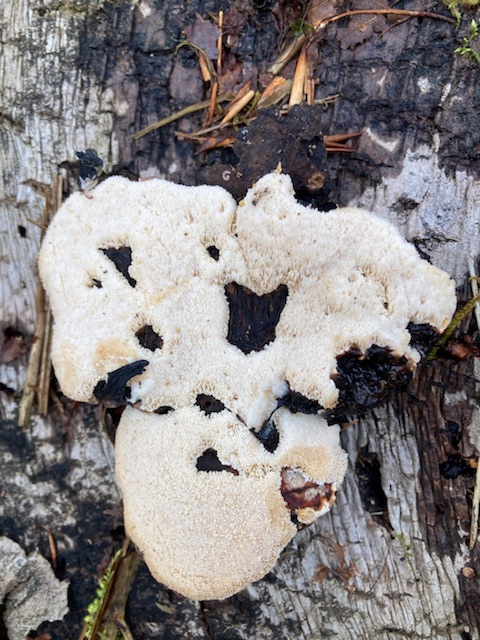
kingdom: Fungi
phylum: Basidiomycota
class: Agaricomycetes
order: Polyporales
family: Ischnodermataceae
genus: Ischnoderma
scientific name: Ischnoderma resinosum
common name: løv-tjæreporesvamp
